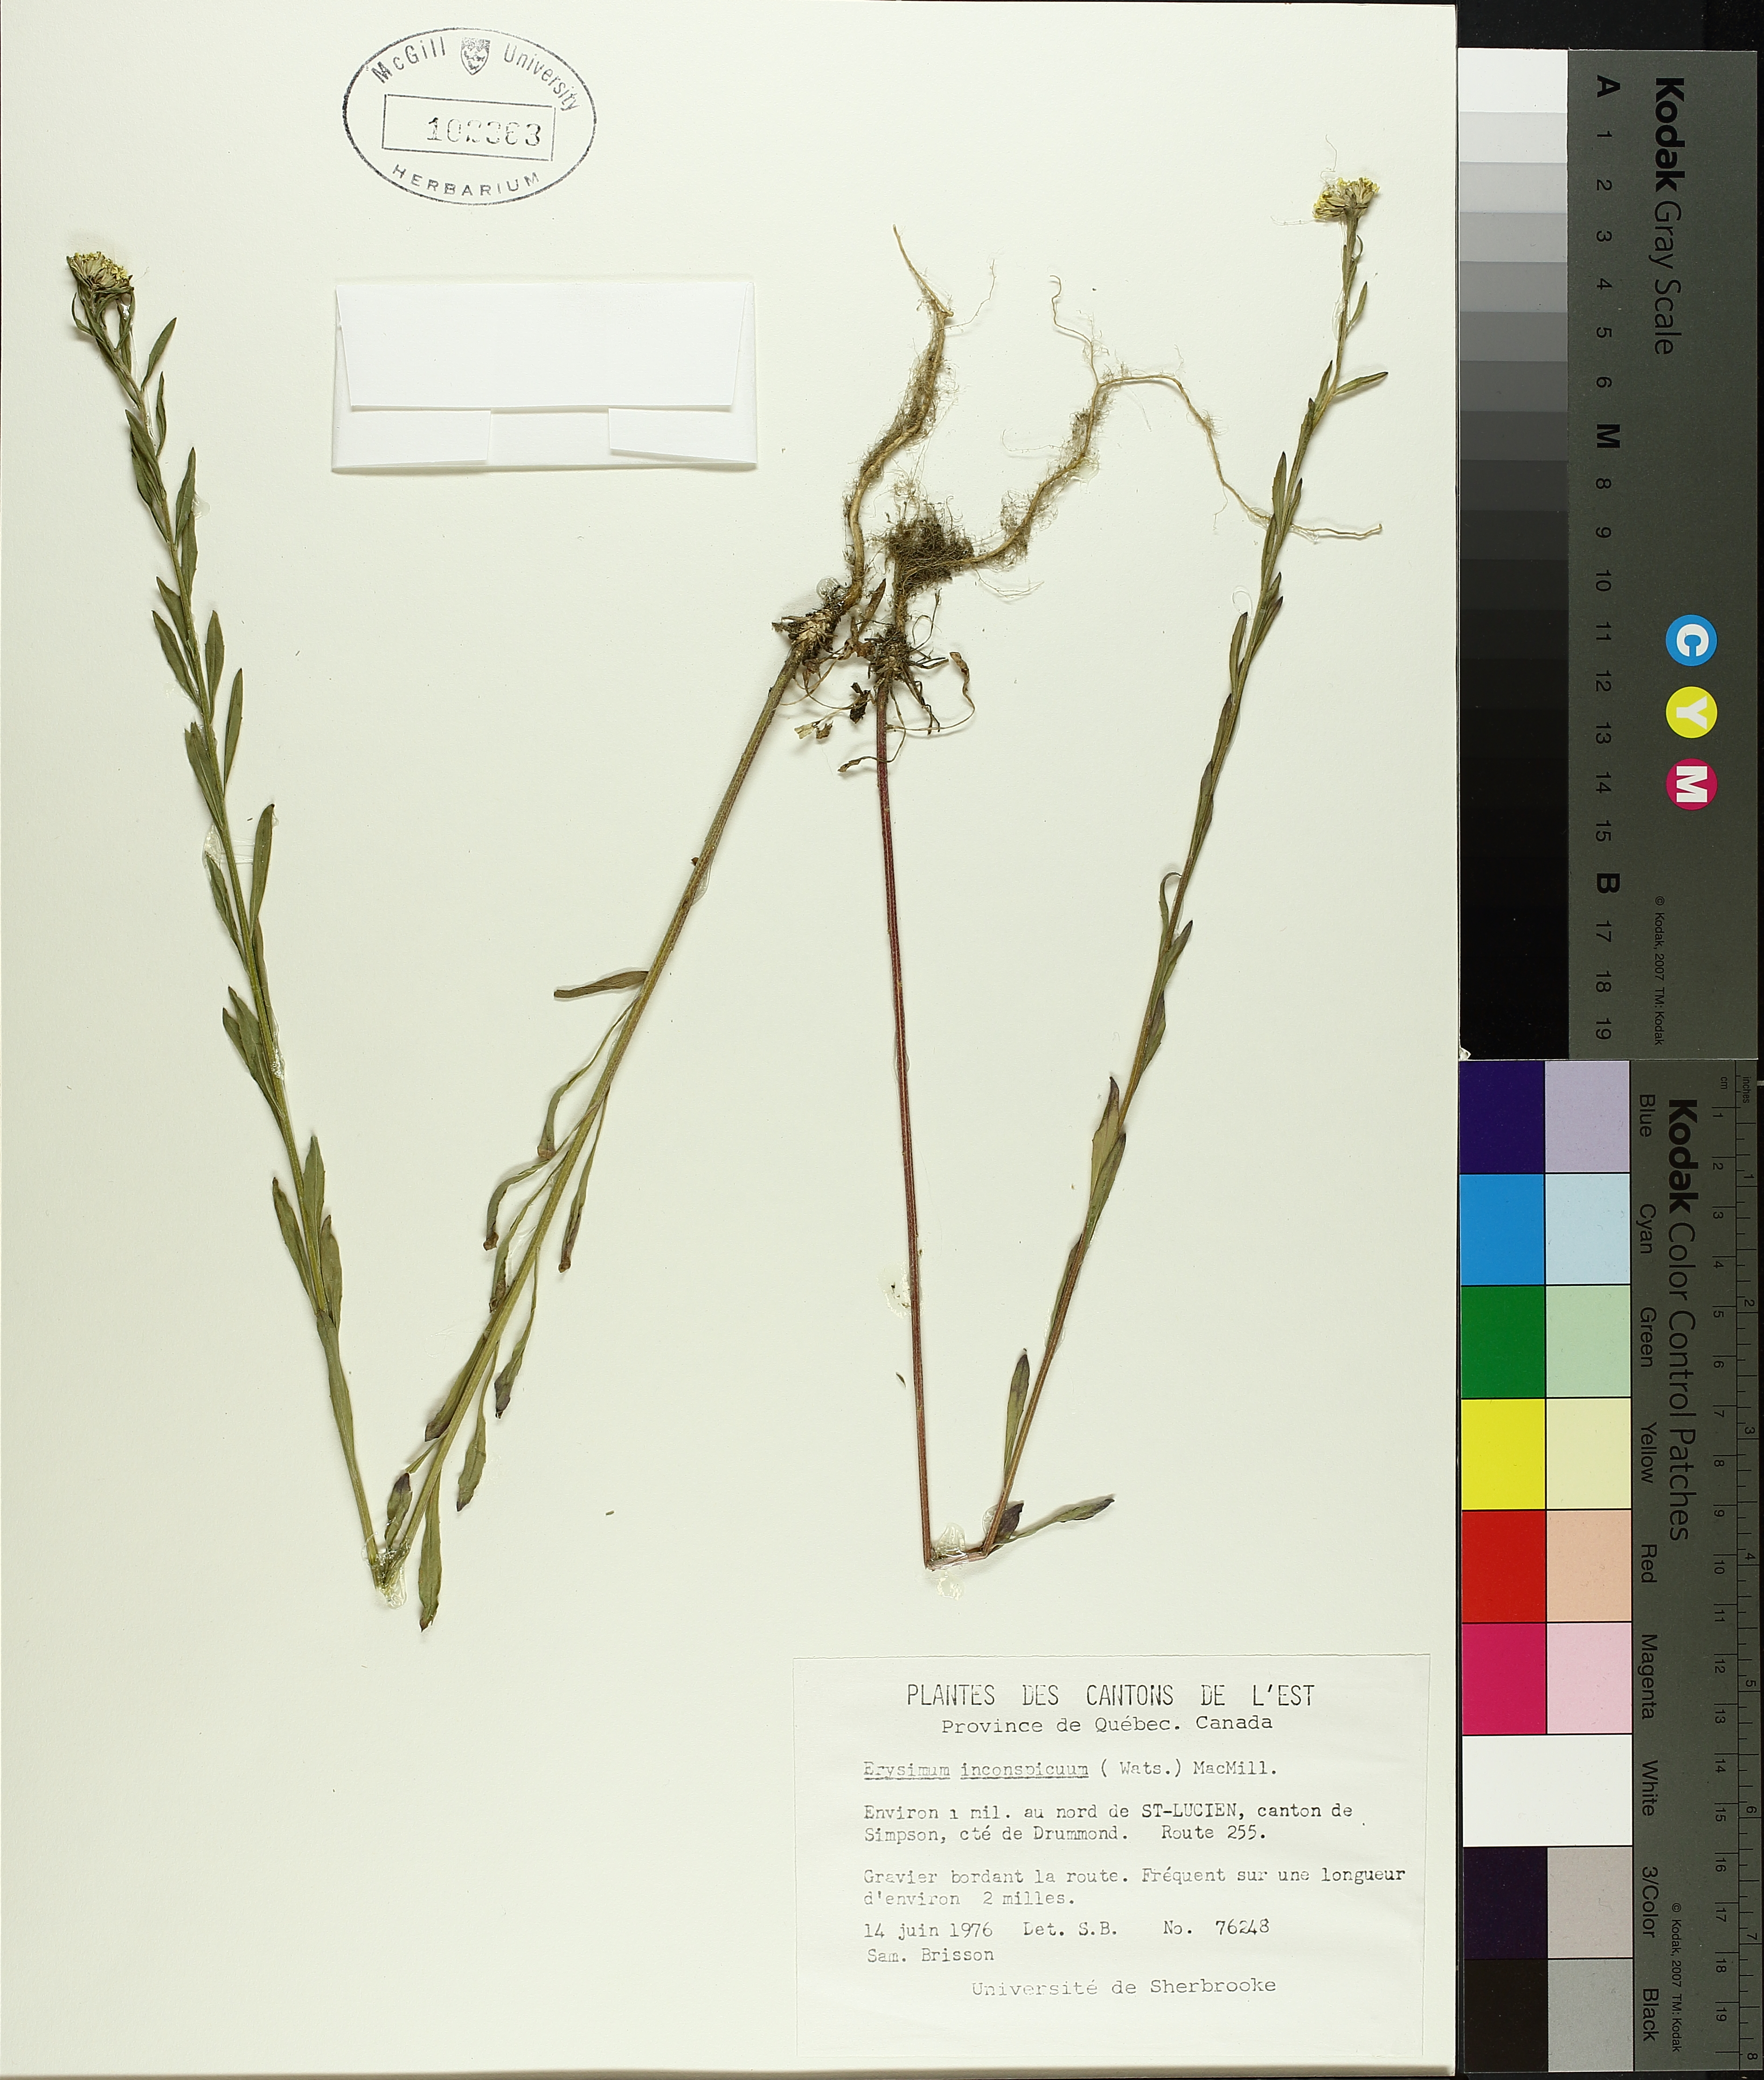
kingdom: Plantae
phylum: Tracheophyta
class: Liliopsida
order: Poales
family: Cyperaceae
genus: Carex
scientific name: Carex echinata
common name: Star sedge
